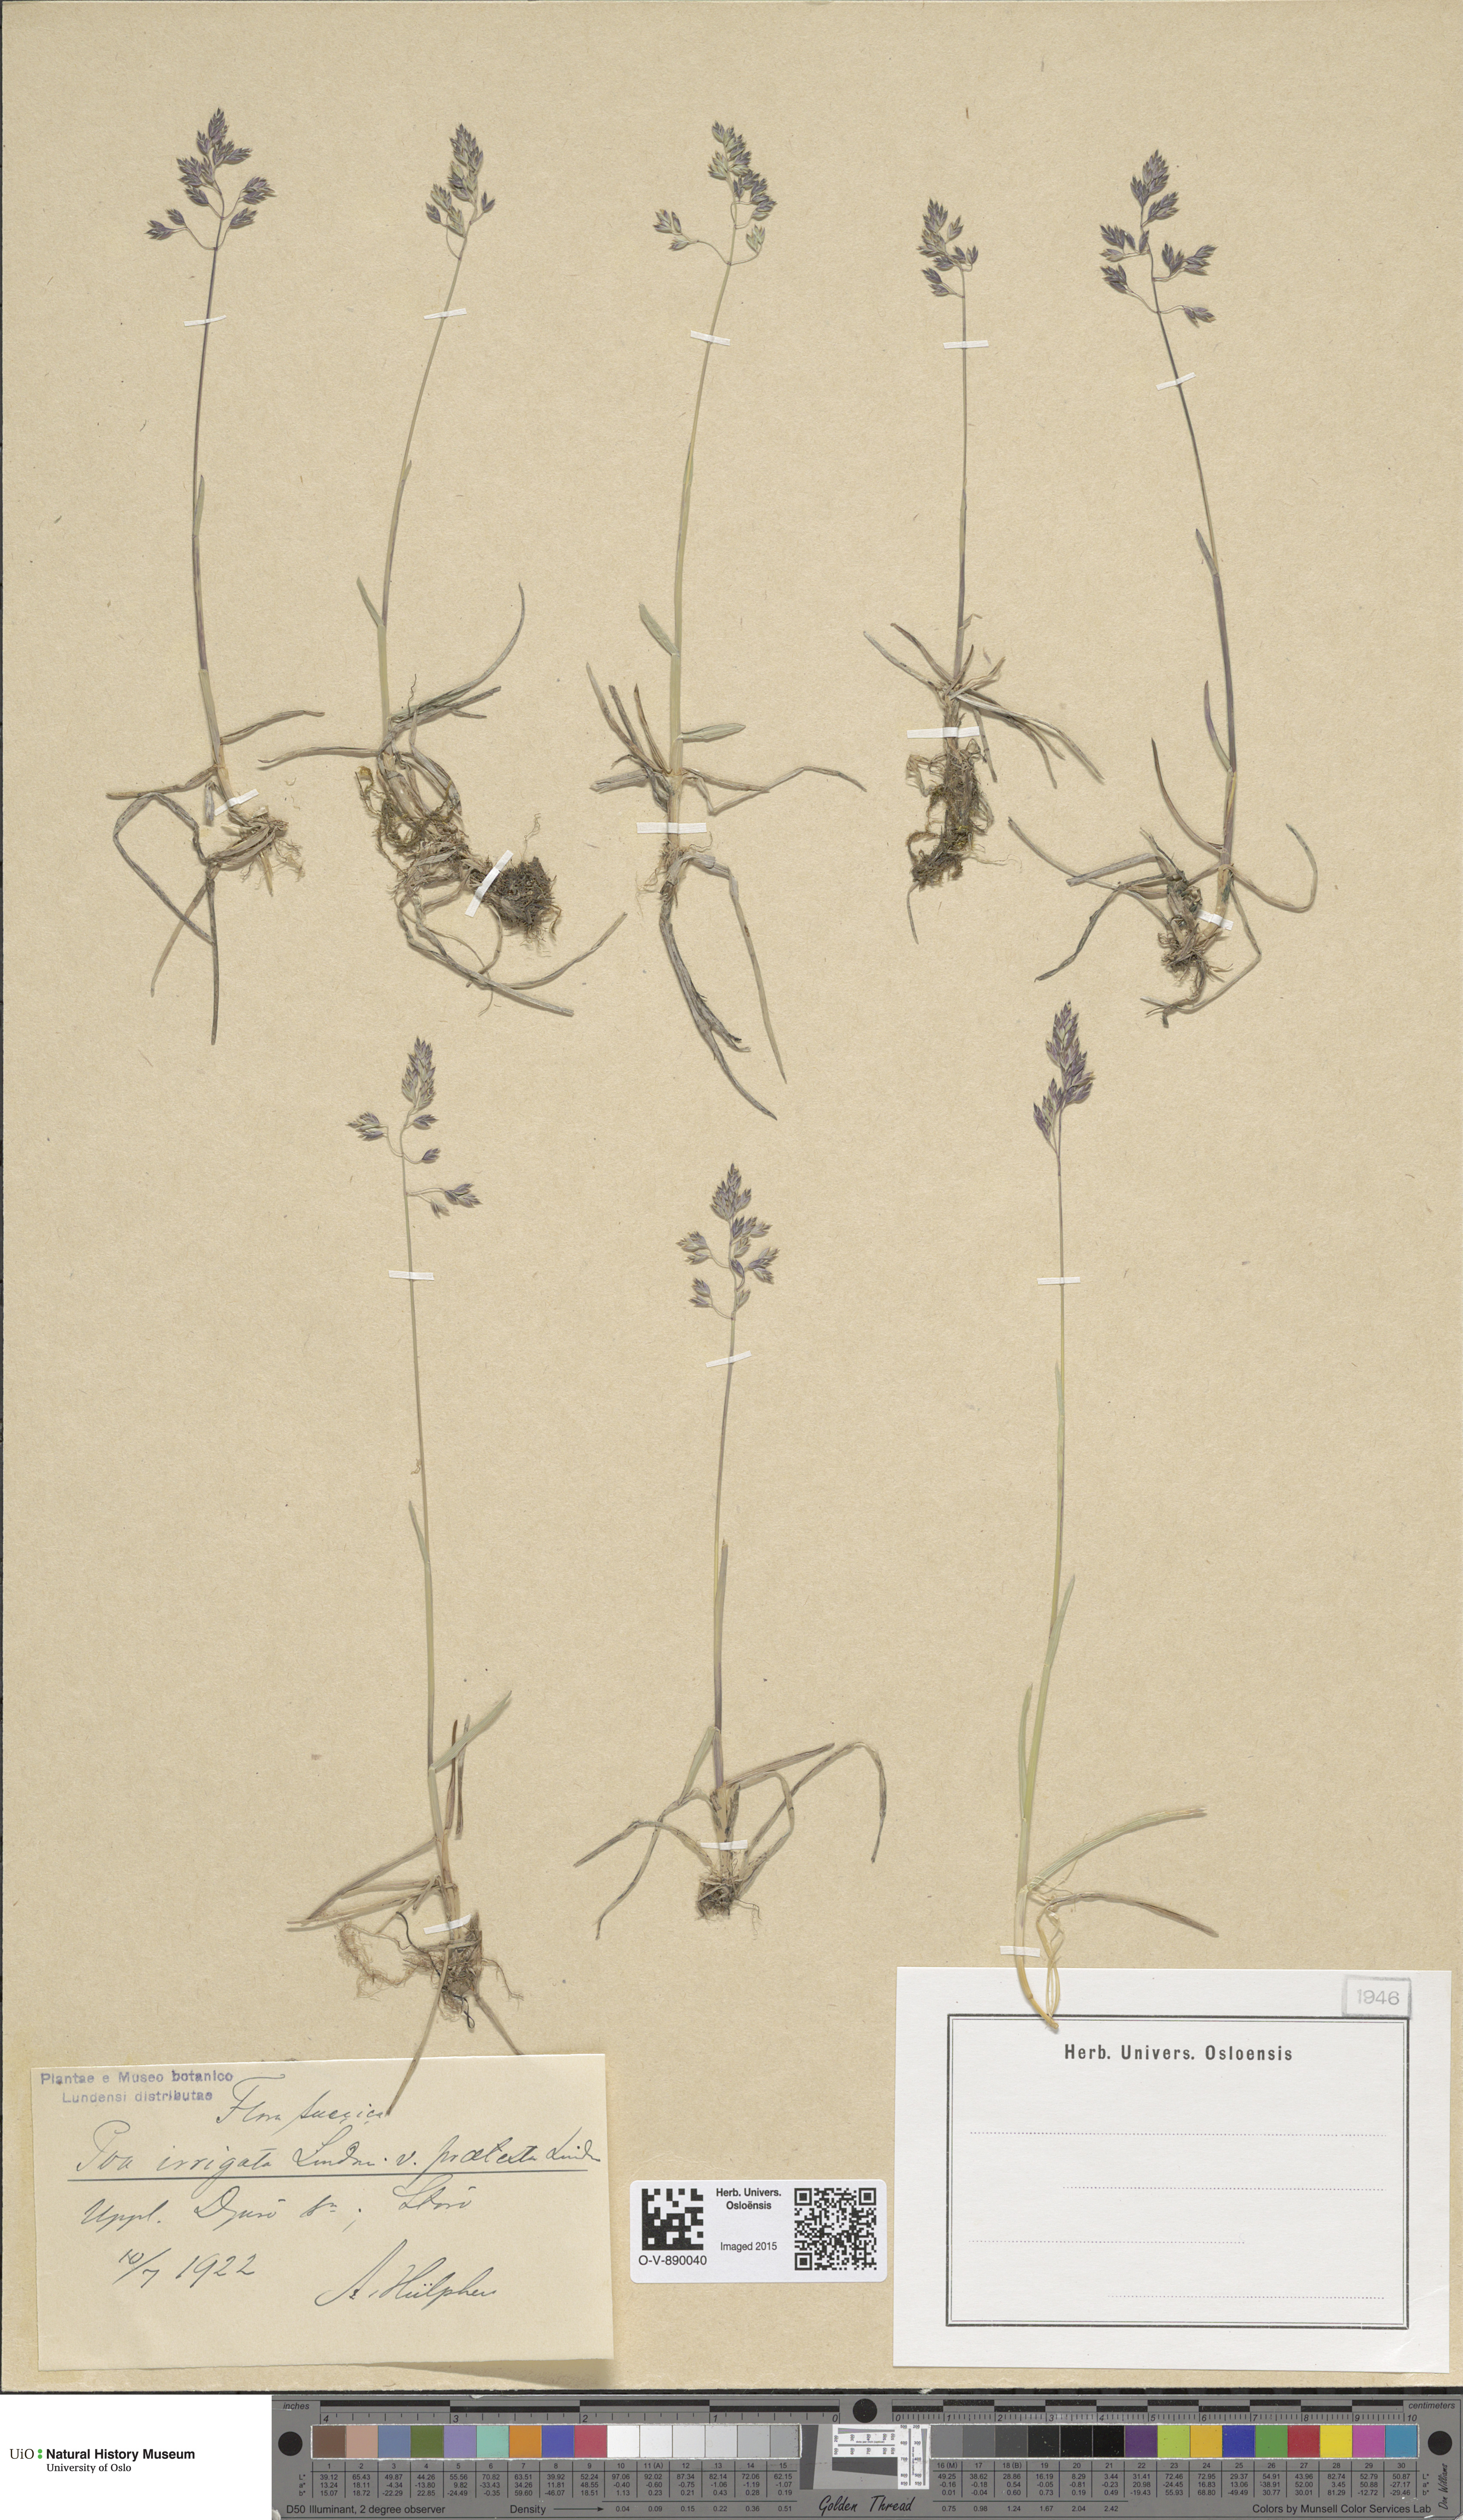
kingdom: Plantae
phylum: Tracheophyta
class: Liliopsida
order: Poales
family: Poaceae
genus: Poa
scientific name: Poa humilis
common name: Spreading meadow-grass
